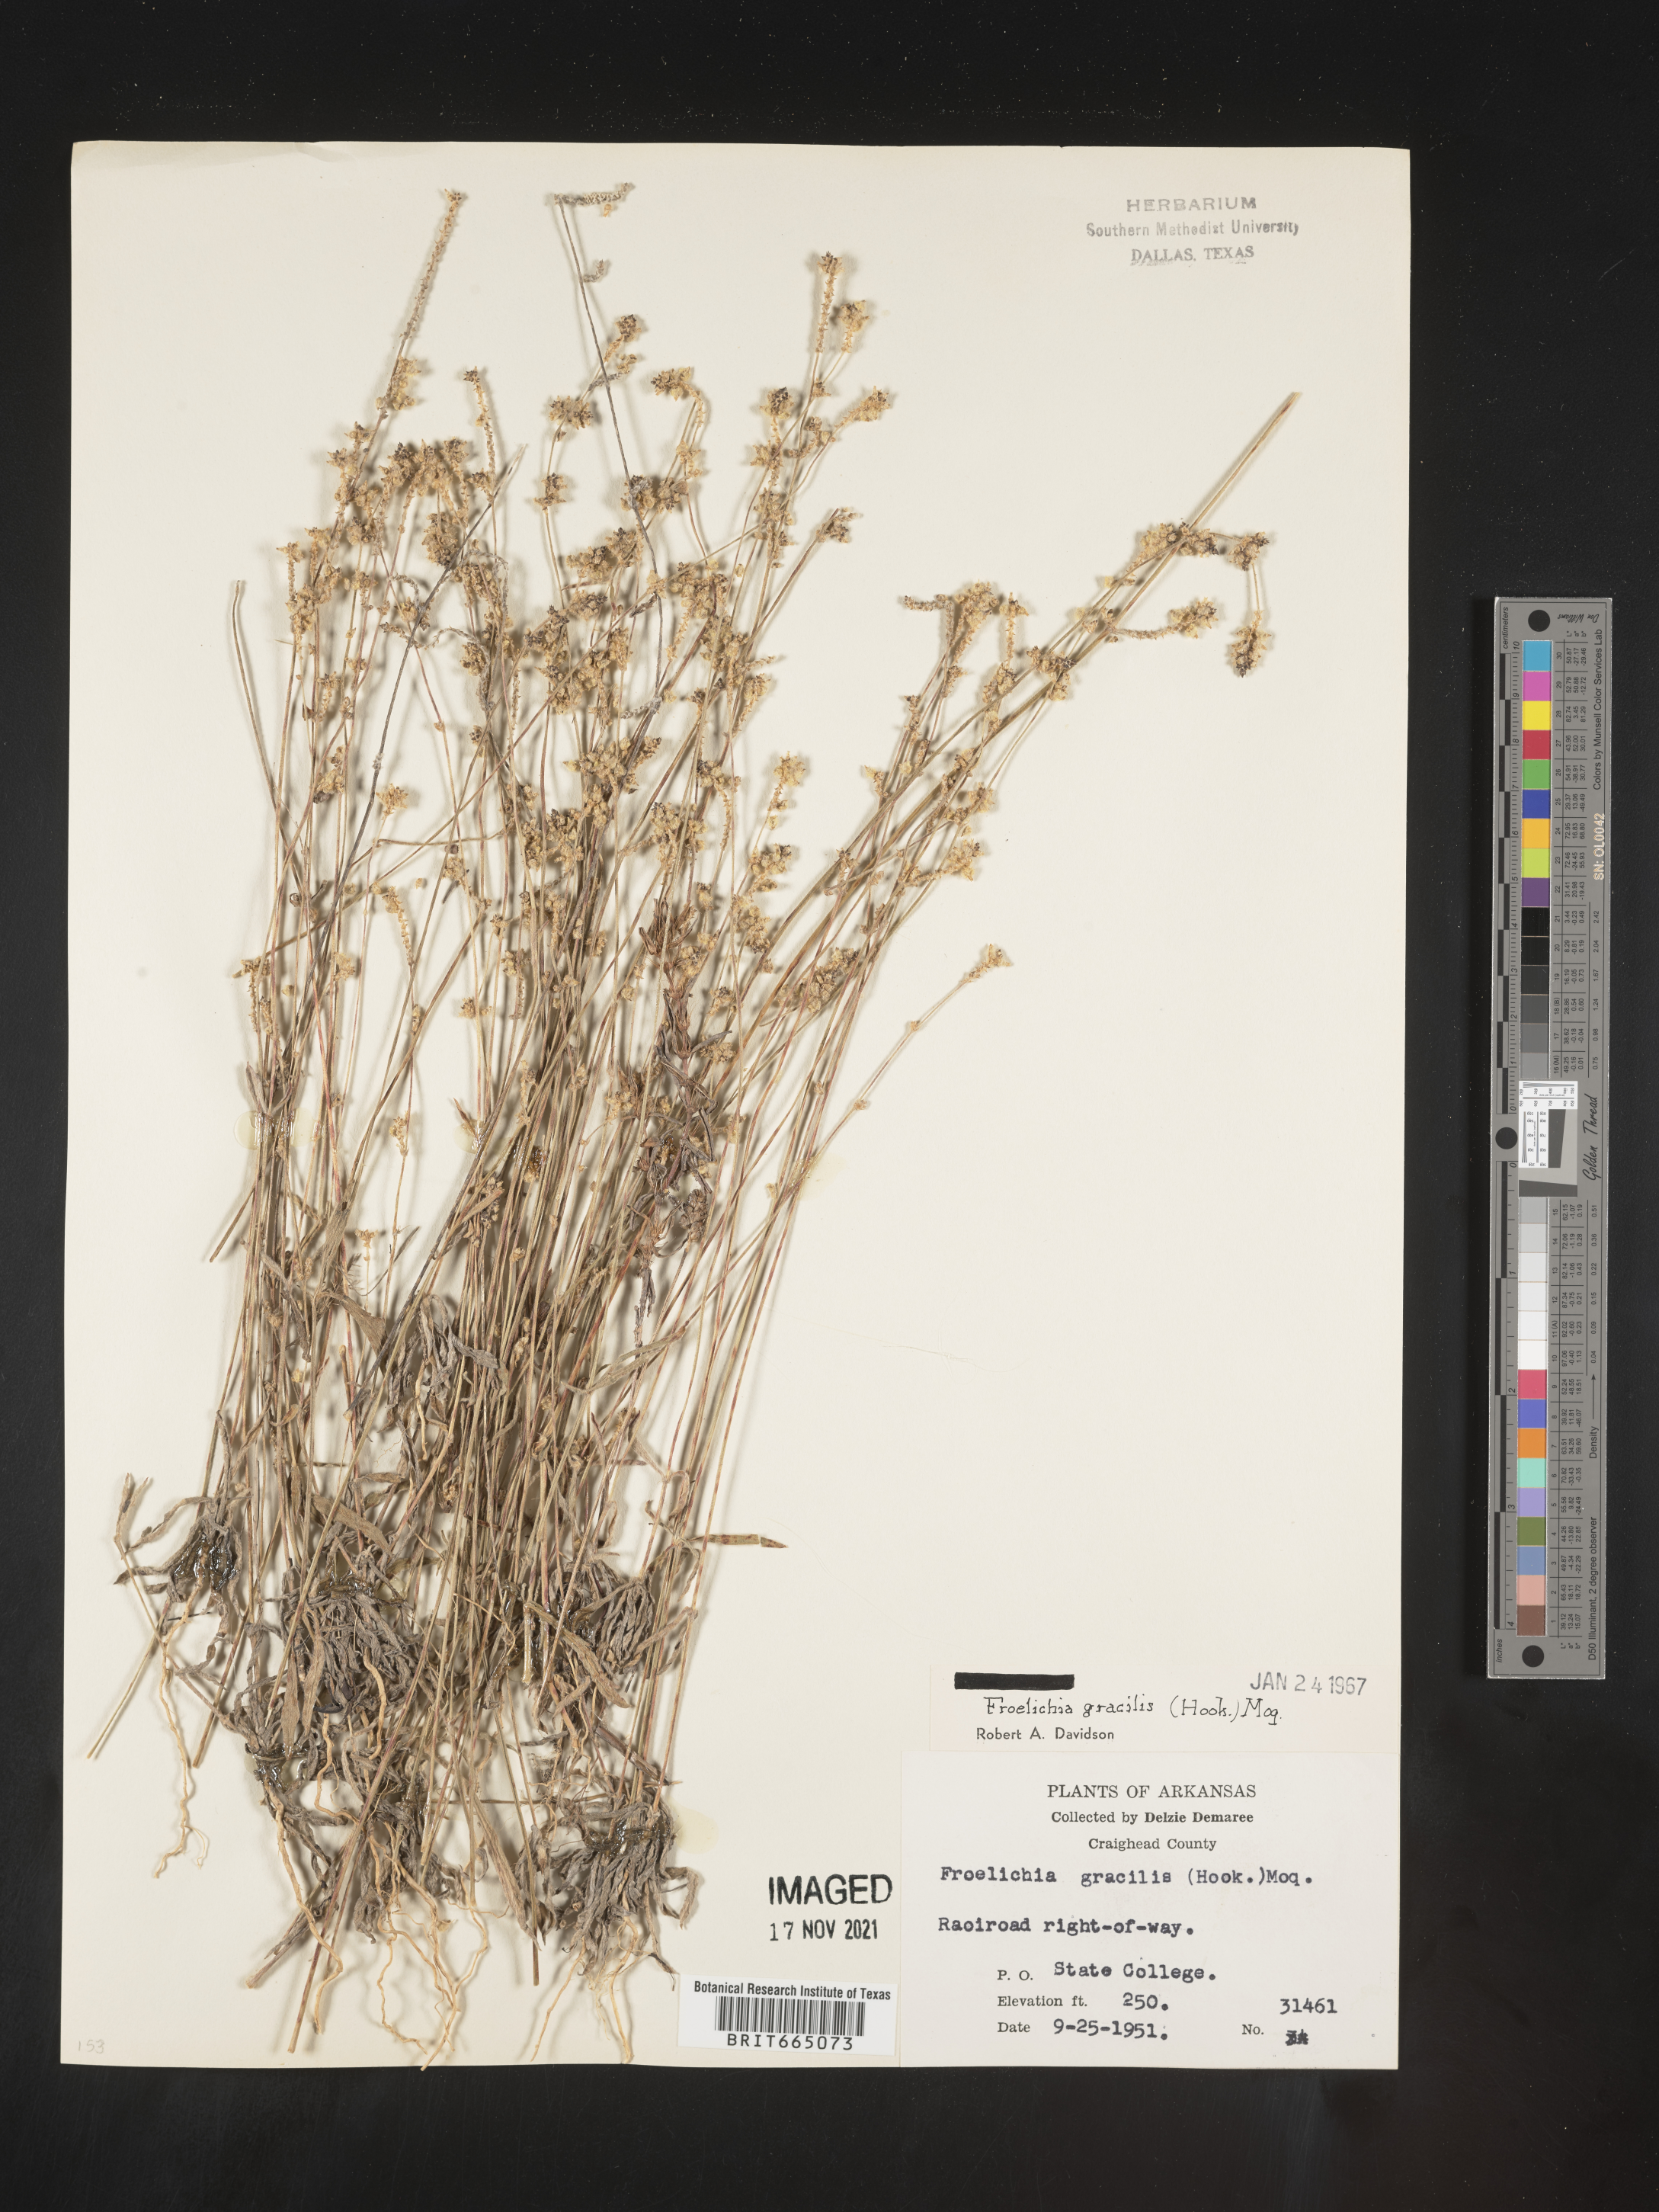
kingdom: Plantae
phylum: Tracheophyta
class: Magnoliopsida
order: Caryophyllales
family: Amaranthaceae
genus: Froelichia
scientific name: Froelichia gracilis
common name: Slender cottonweed
